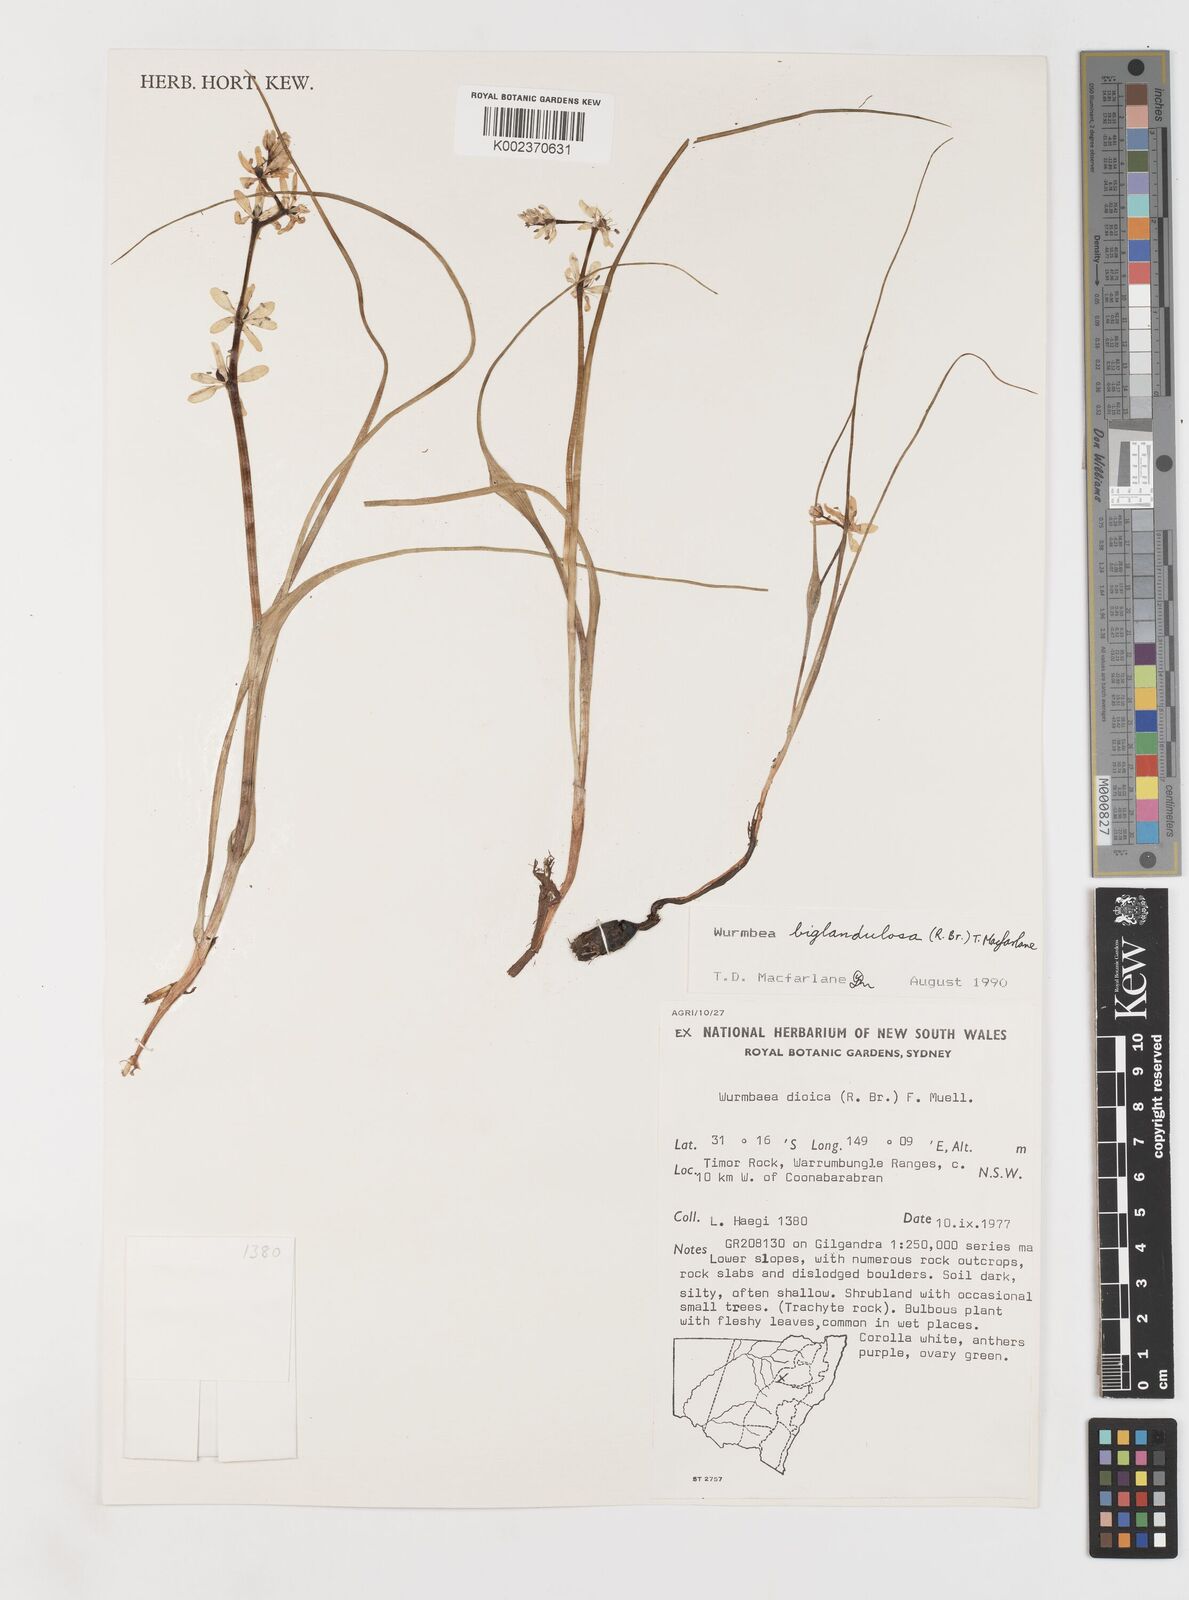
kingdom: Plantae
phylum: Tracheophyta
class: Liliopsida
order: Liliales
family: Colchicaceae
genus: Wurmbea
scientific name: Wurmbea biglandulosa
